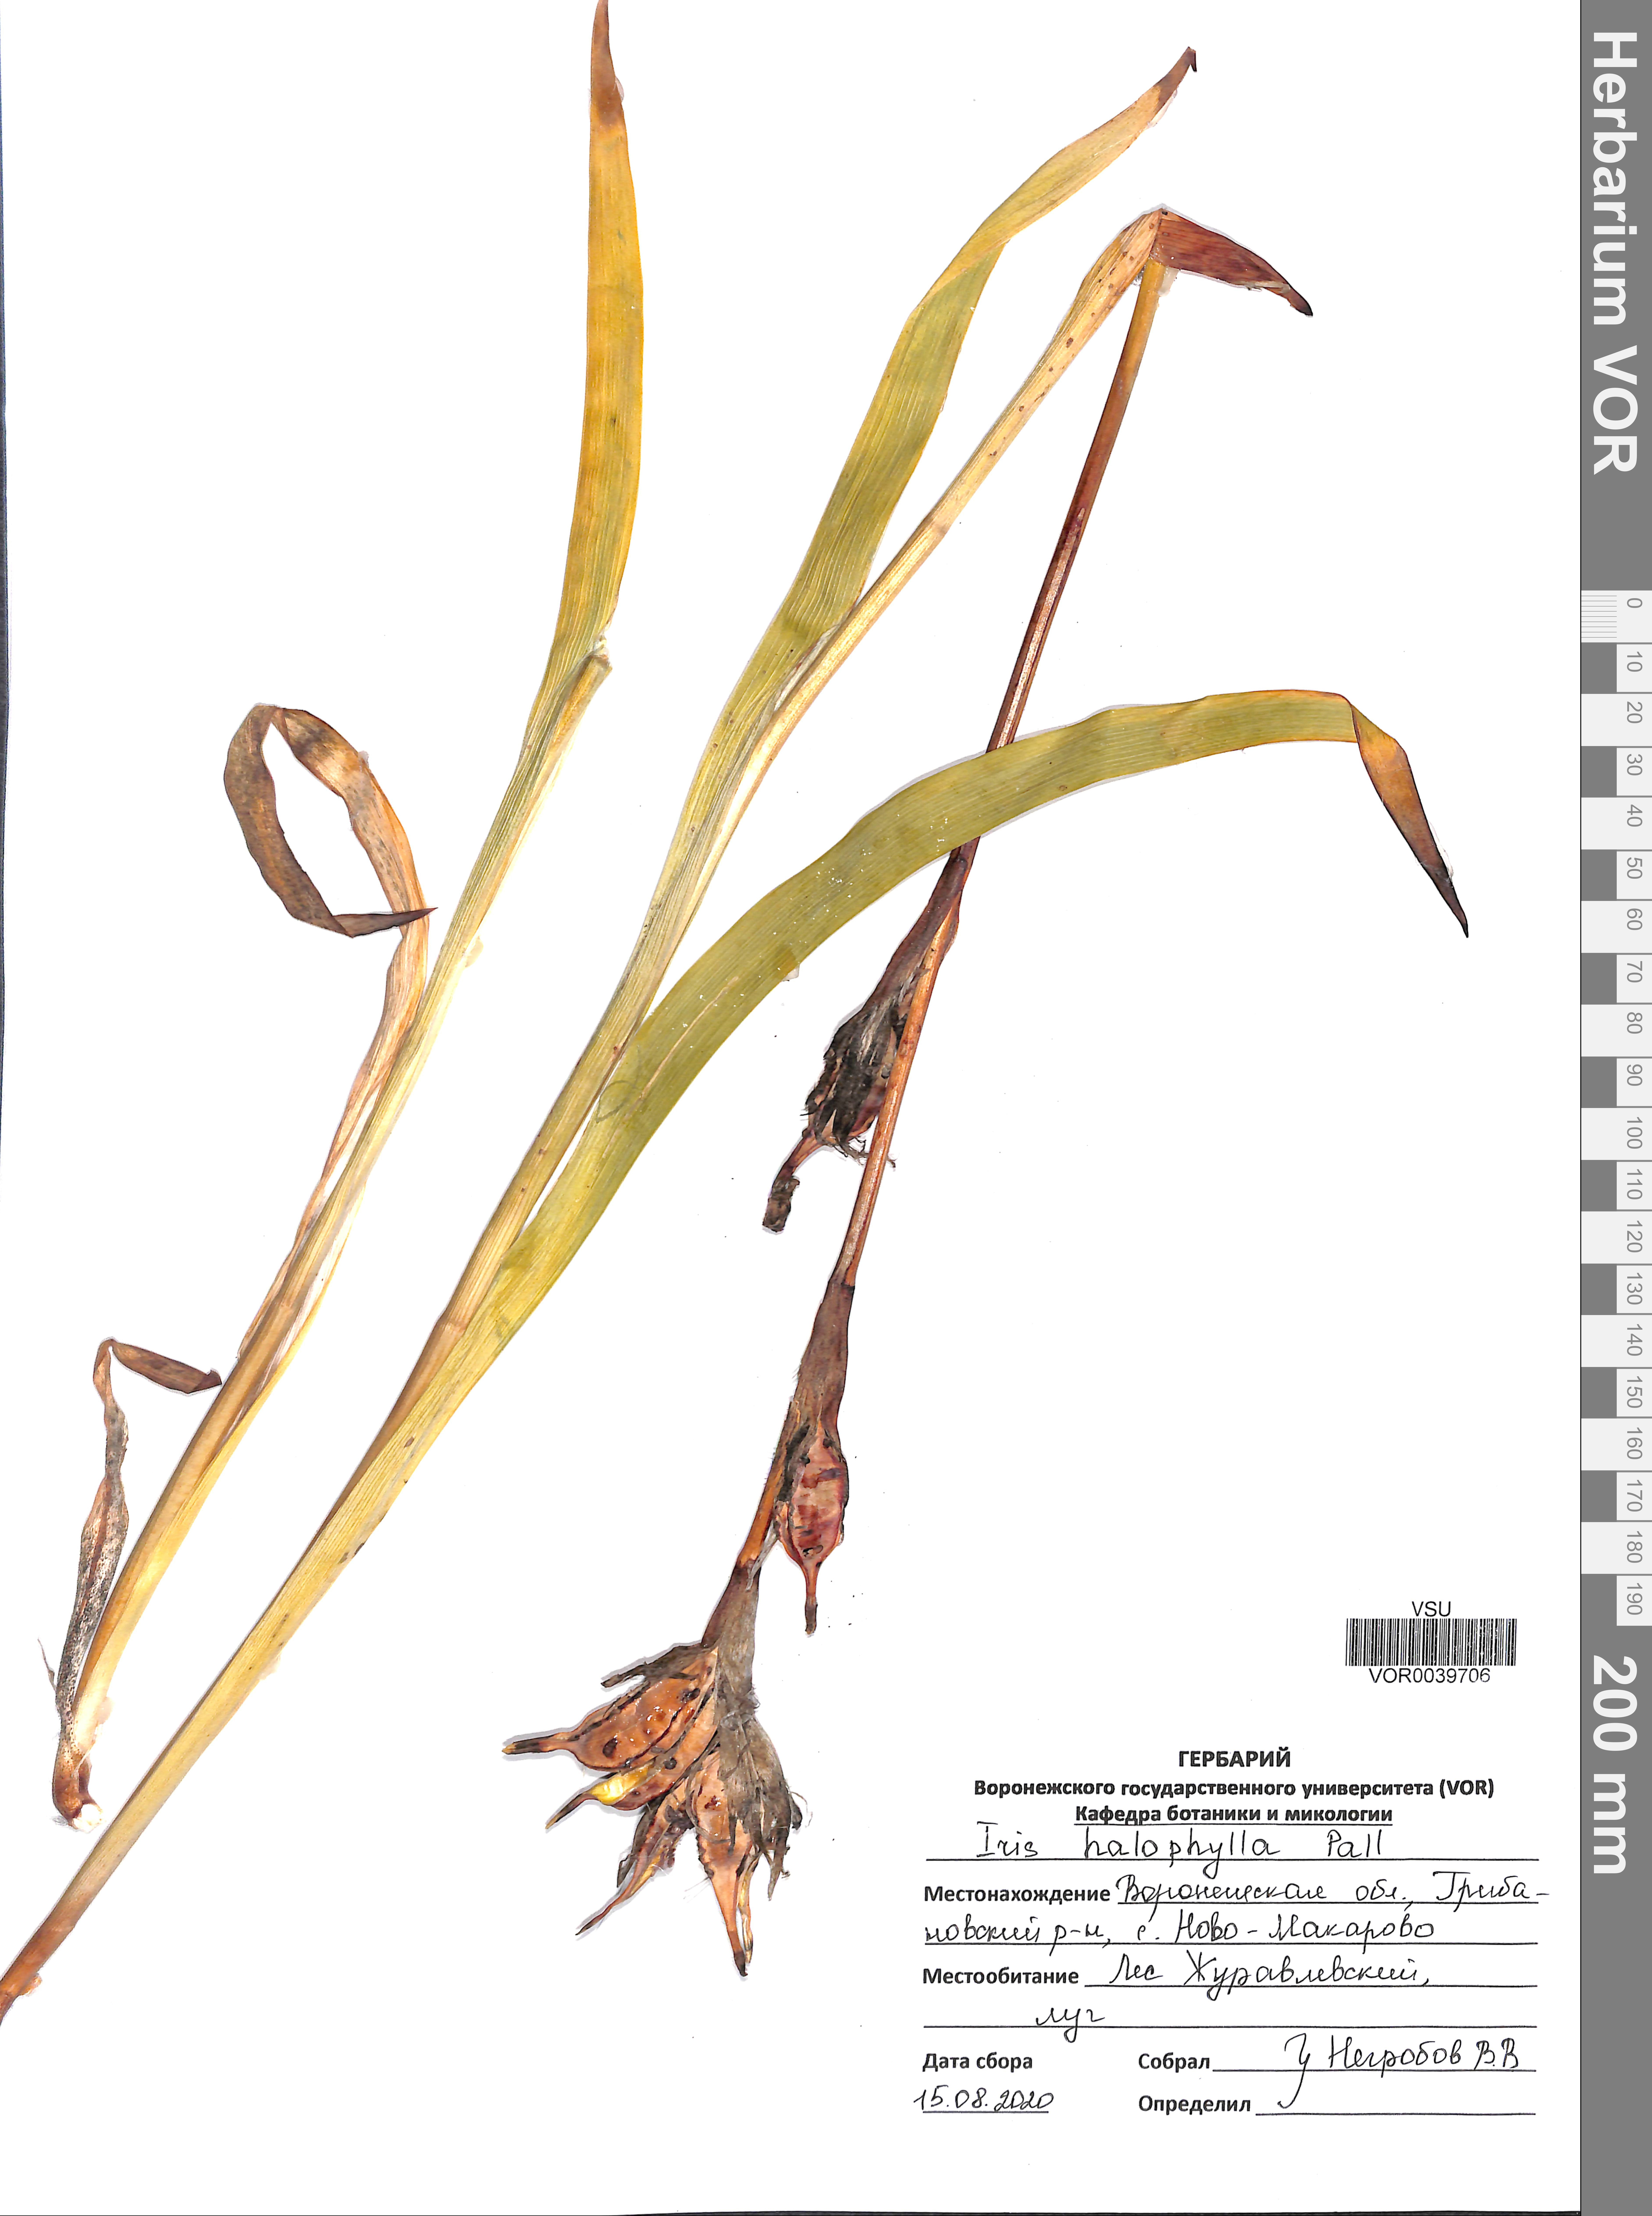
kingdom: Plantae
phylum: Tracheophyta
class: Liliopsida
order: Asparagales
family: Iridaceae
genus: Iris
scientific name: Iris halophila
